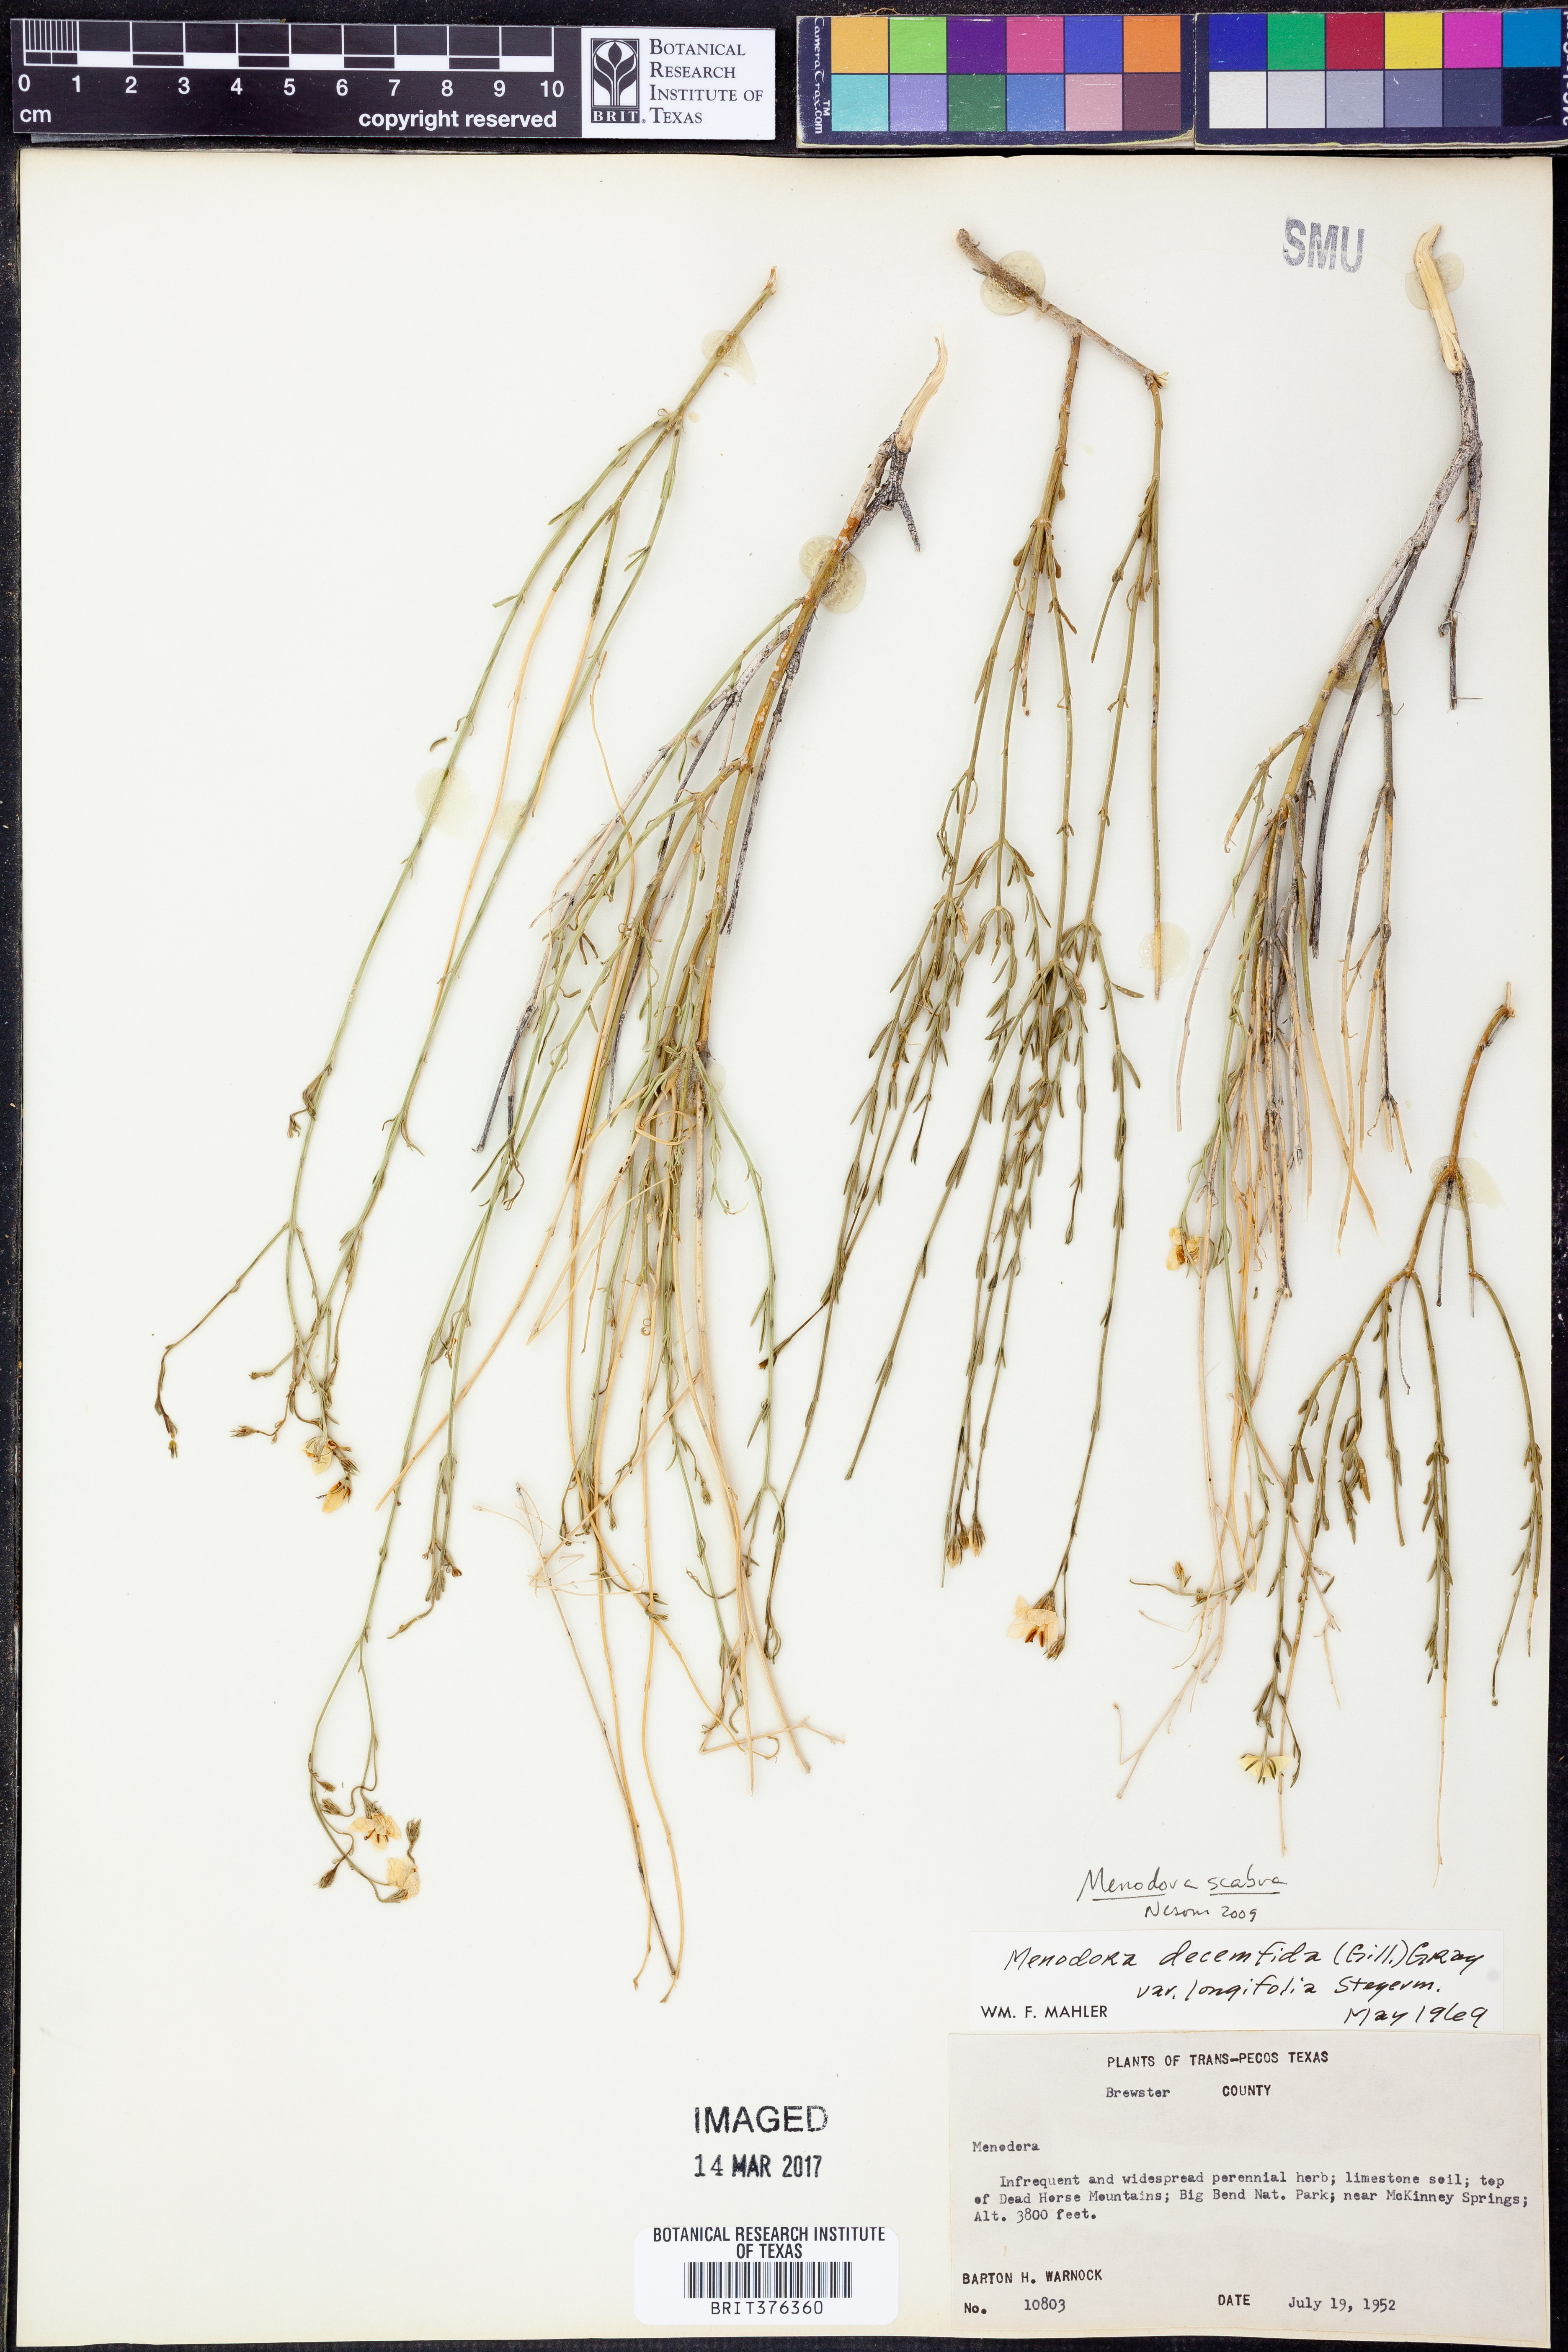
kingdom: Plantae
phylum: Tracheophyta
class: Magnoliopsida
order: Lamiales
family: Oleaceae
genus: Menodora
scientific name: Menodora scabra
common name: Rough menodora
